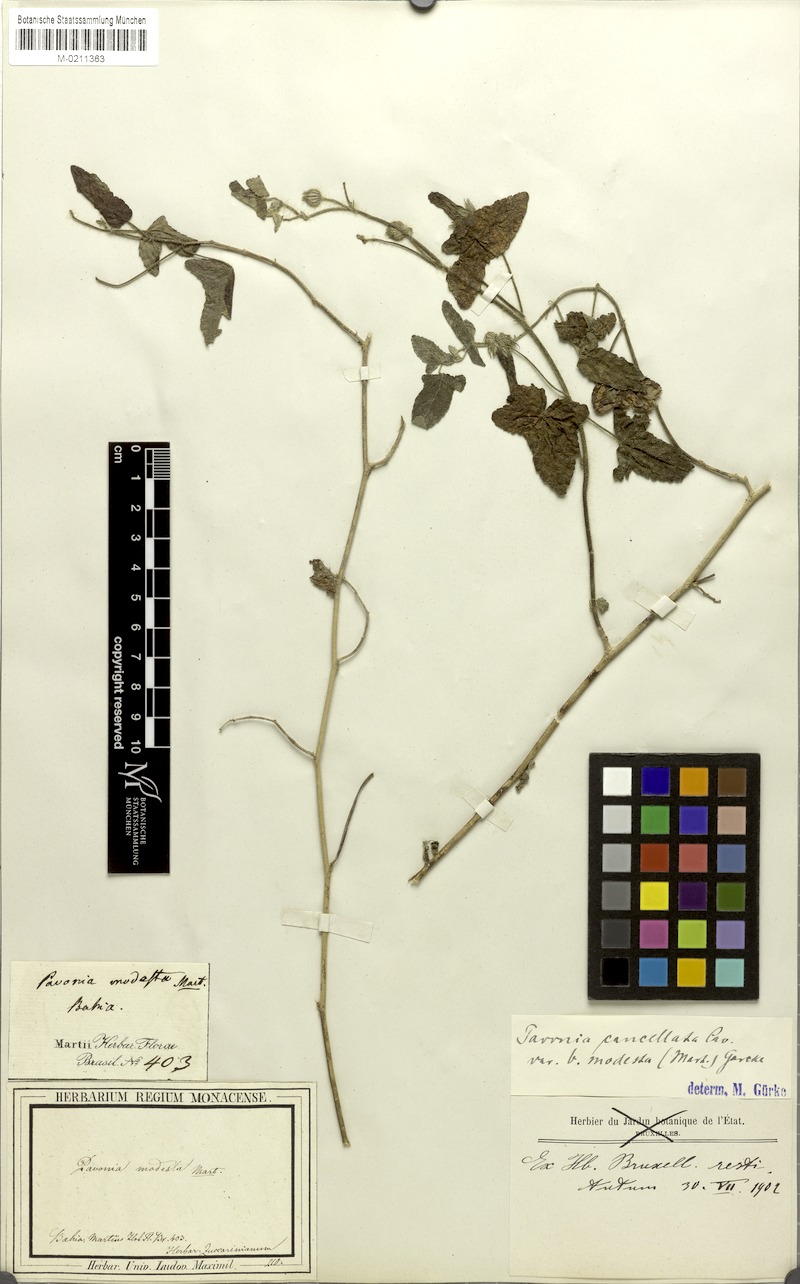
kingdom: Plantae
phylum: Tracheophyta
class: Magnoliopsida
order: Malvales
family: Malvaceae
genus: Pavonia
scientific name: Pavonia cancellata
